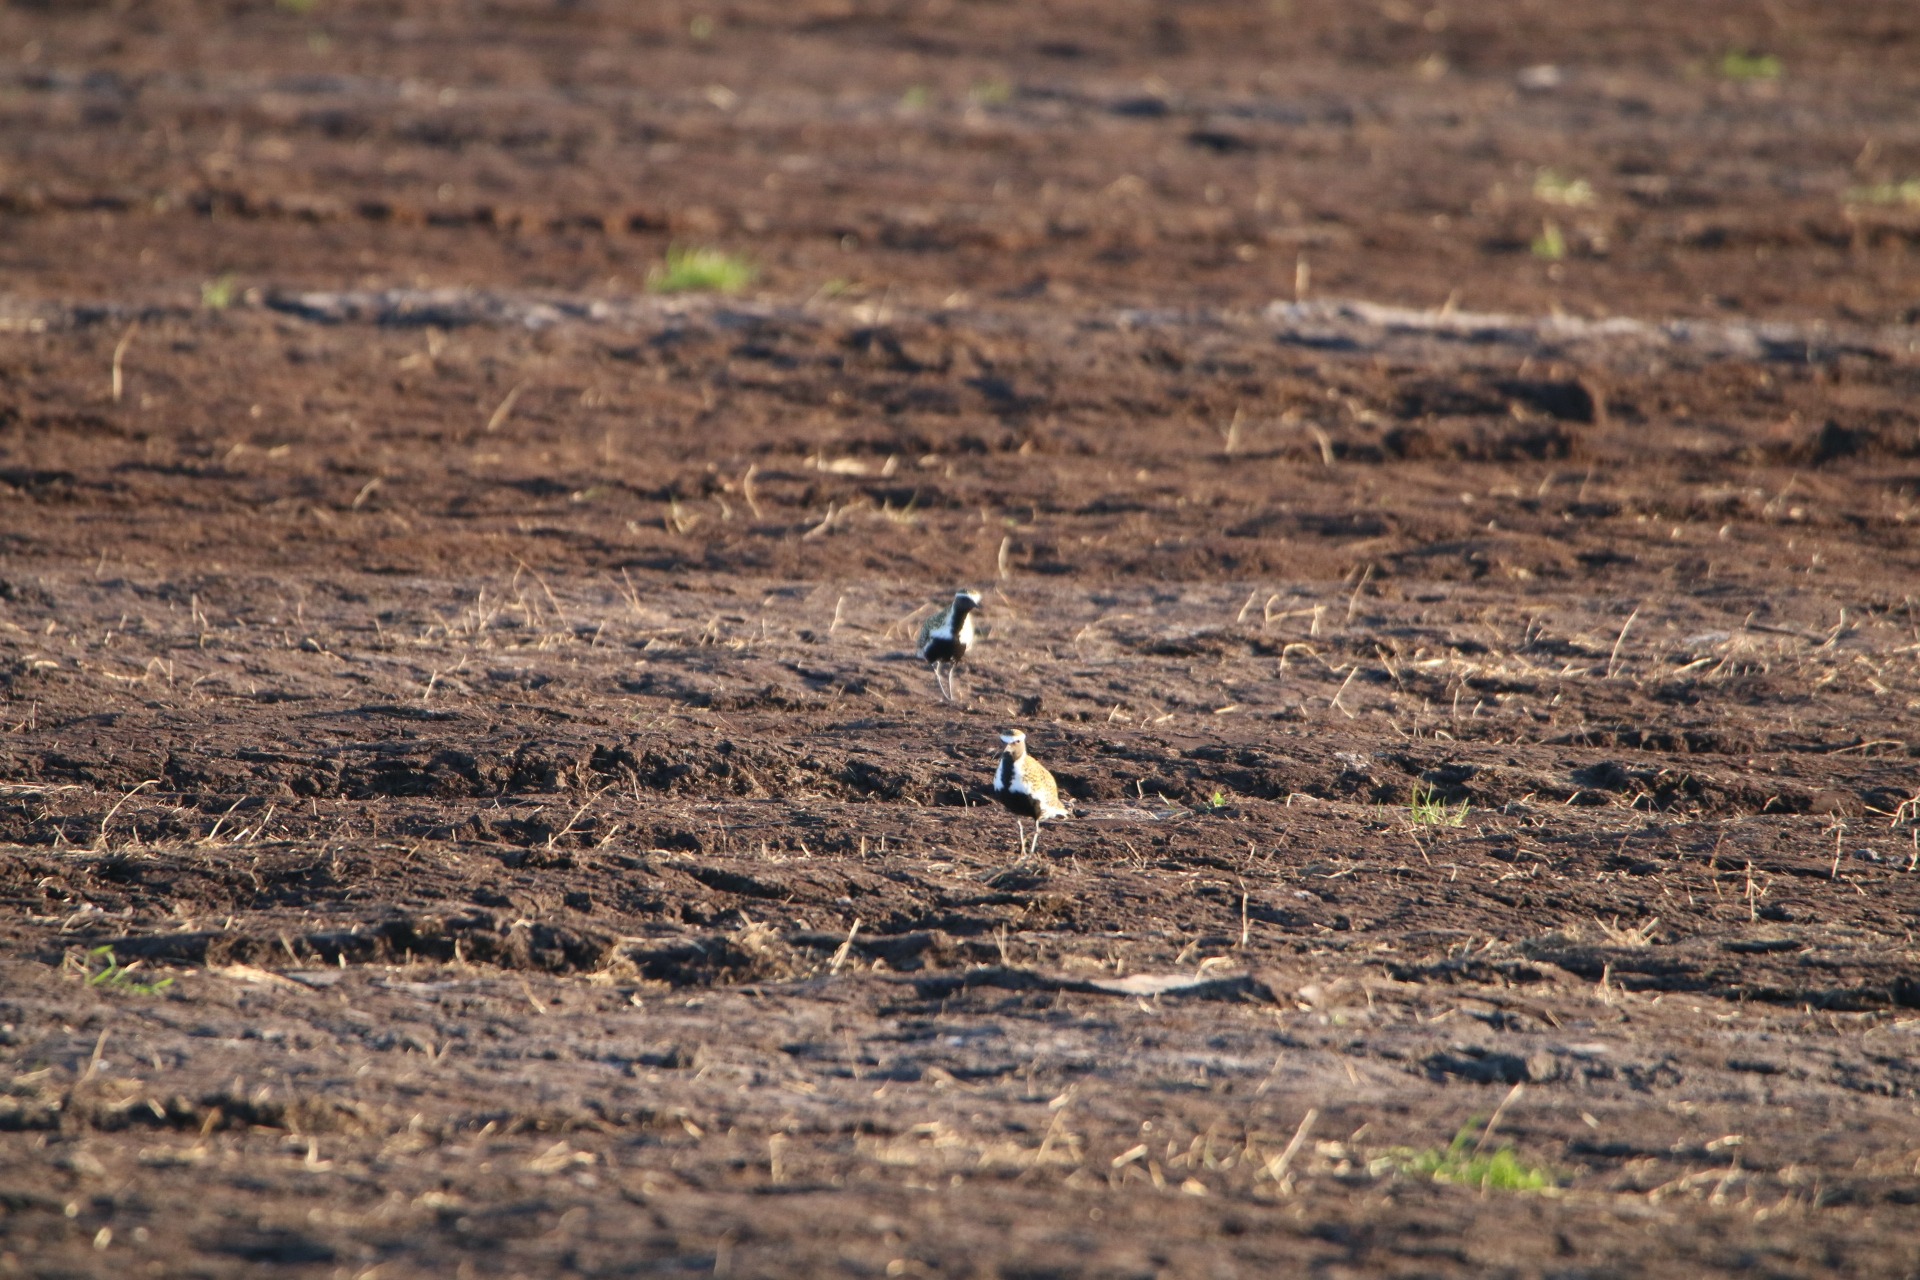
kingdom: Animalia
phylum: Chordata
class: Aves
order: Charadriiformes
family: Charadriidae
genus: Pluvialis
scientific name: Pluvialis apricaria
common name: Hjejle
